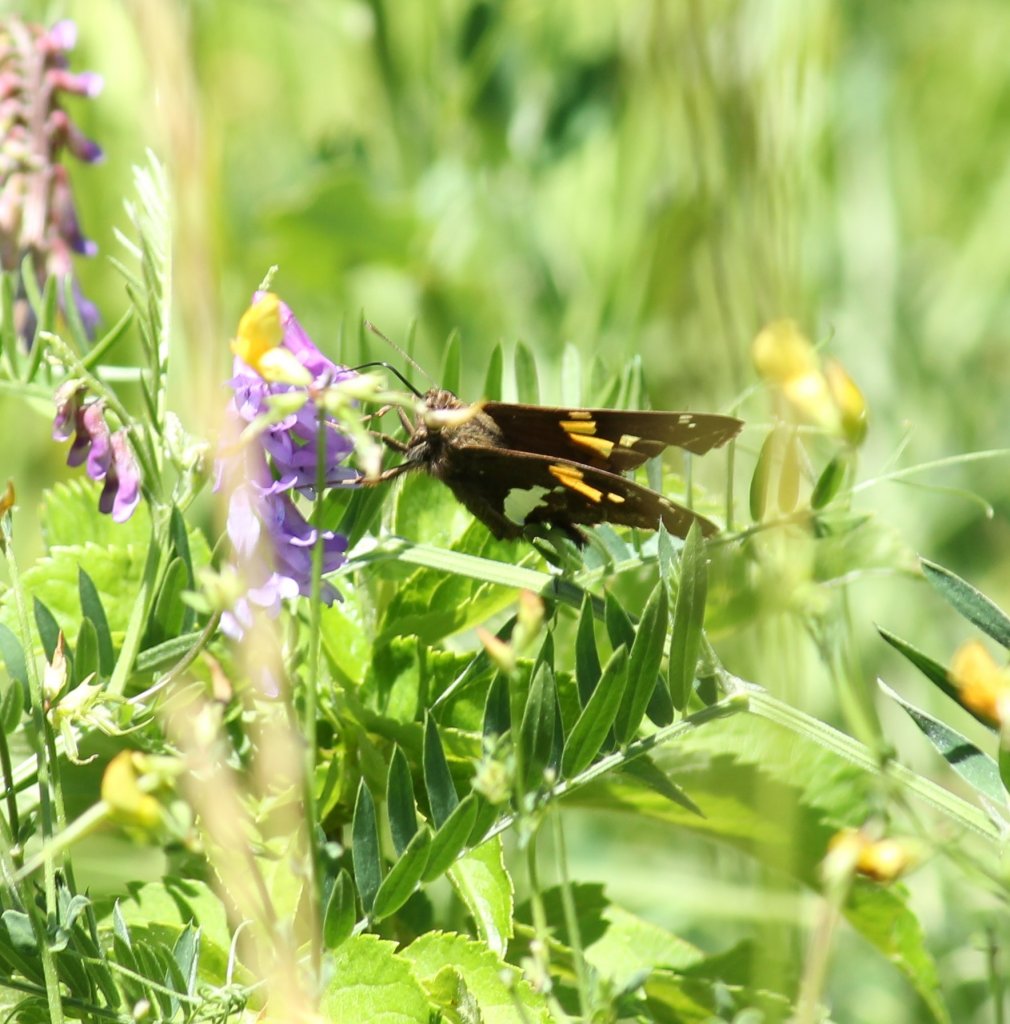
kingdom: Animalia
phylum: Arthropoda
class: Insecta
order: Lepidoptera
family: Hesperiidae
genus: Epargyreus
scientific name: Epargyreus clarus
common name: Silver-spotted Skipper
